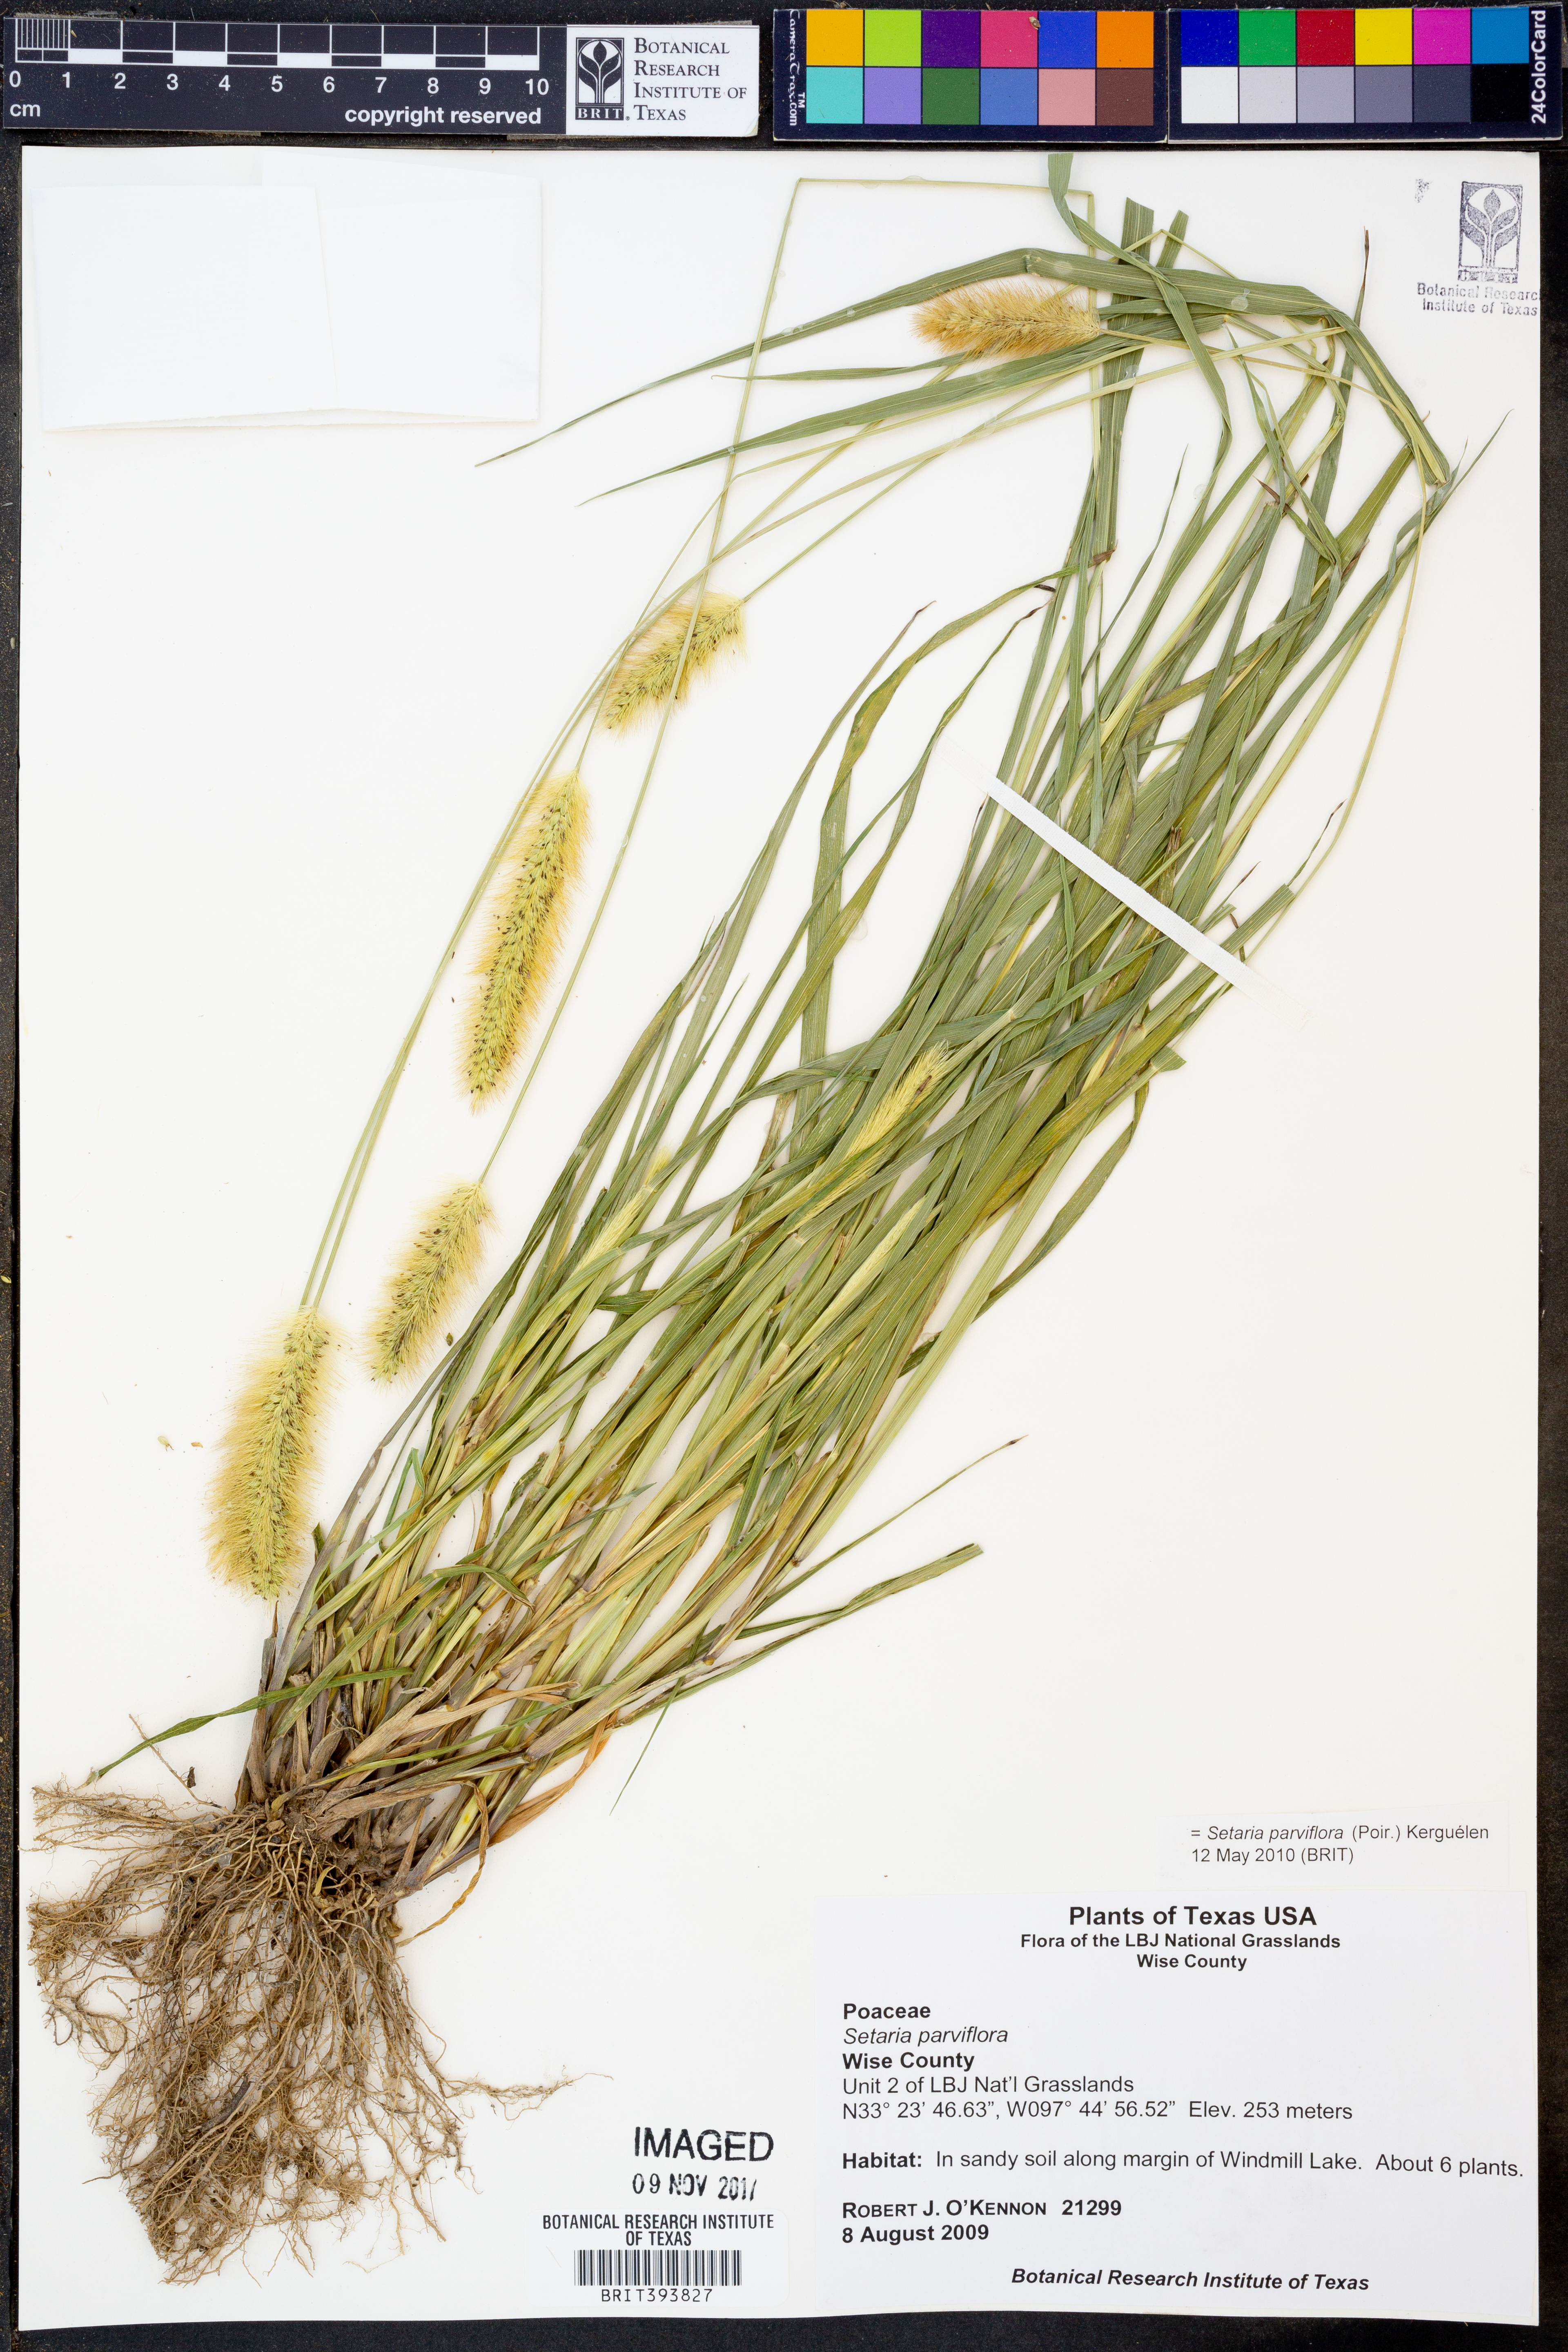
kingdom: Plantae
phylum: Tracheophyta
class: Liliopsida
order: Poales
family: Poaceae
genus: Setaria
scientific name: Setaria parviflora
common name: Knotroot bristle-grass
